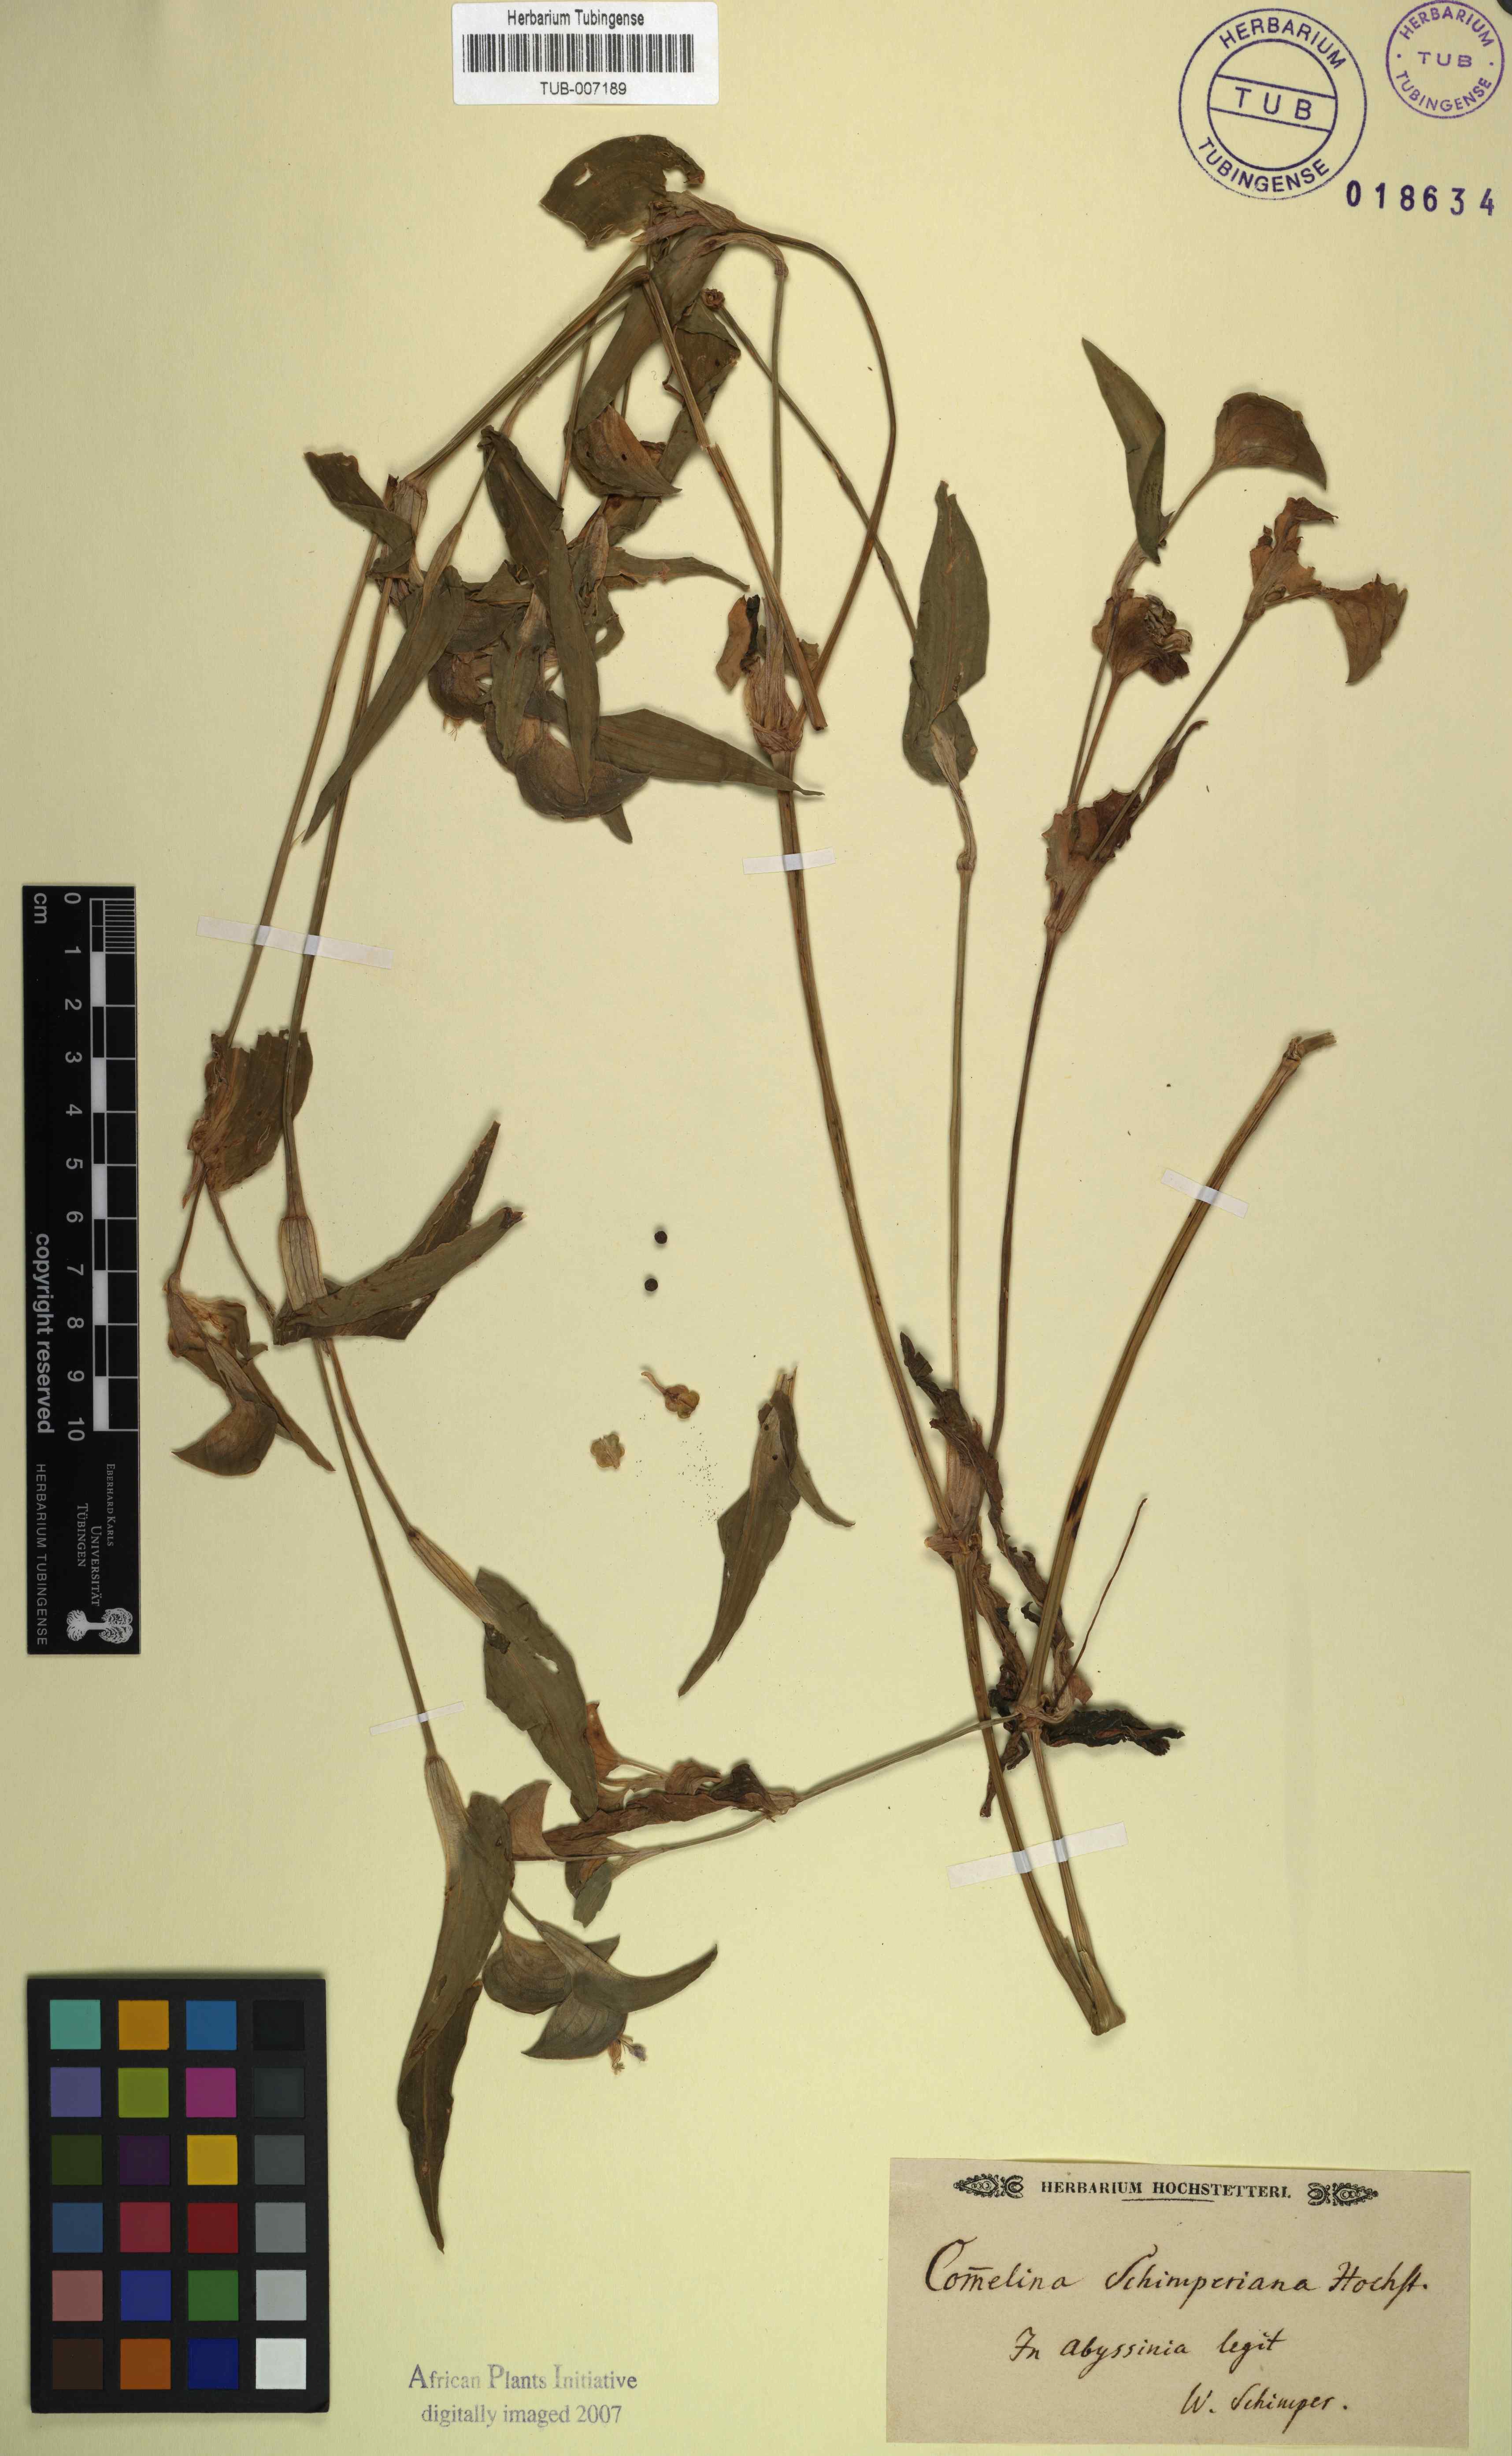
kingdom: Plantae
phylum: Tracheophyta
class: Liliopsida
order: Commelinales
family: Commelinaceae
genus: Commelina
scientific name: Commelina albescens
